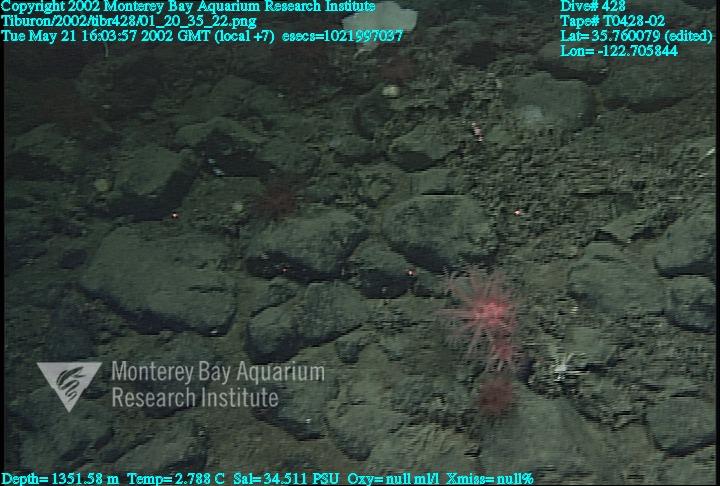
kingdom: Animalia
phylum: Porifera
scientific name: Porifera
